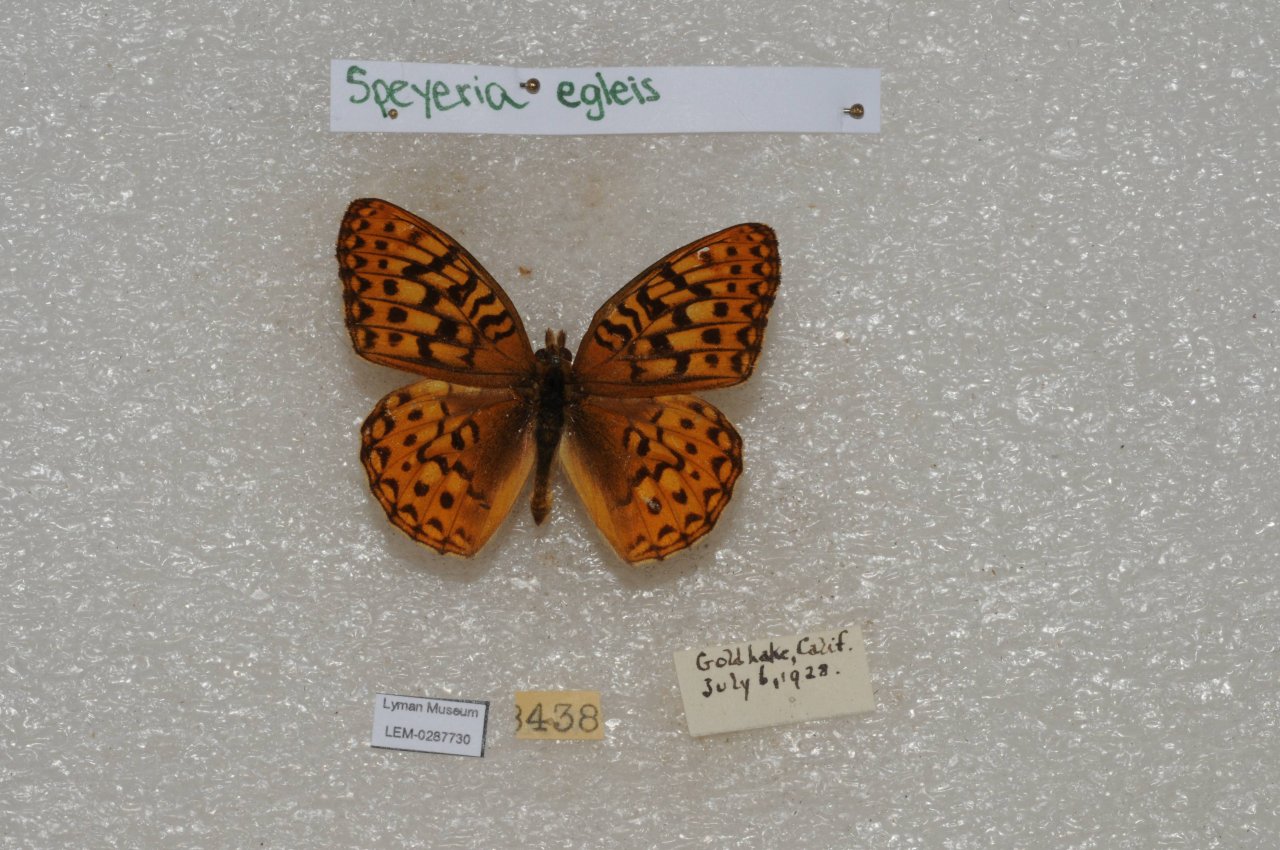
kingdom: Animalia
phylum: Arthropoda
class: Insecta
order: Lepidoptera
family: Nymphalidae
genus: Speyeria
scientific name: Speyeria egleis
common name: Great Basin Fritillary
